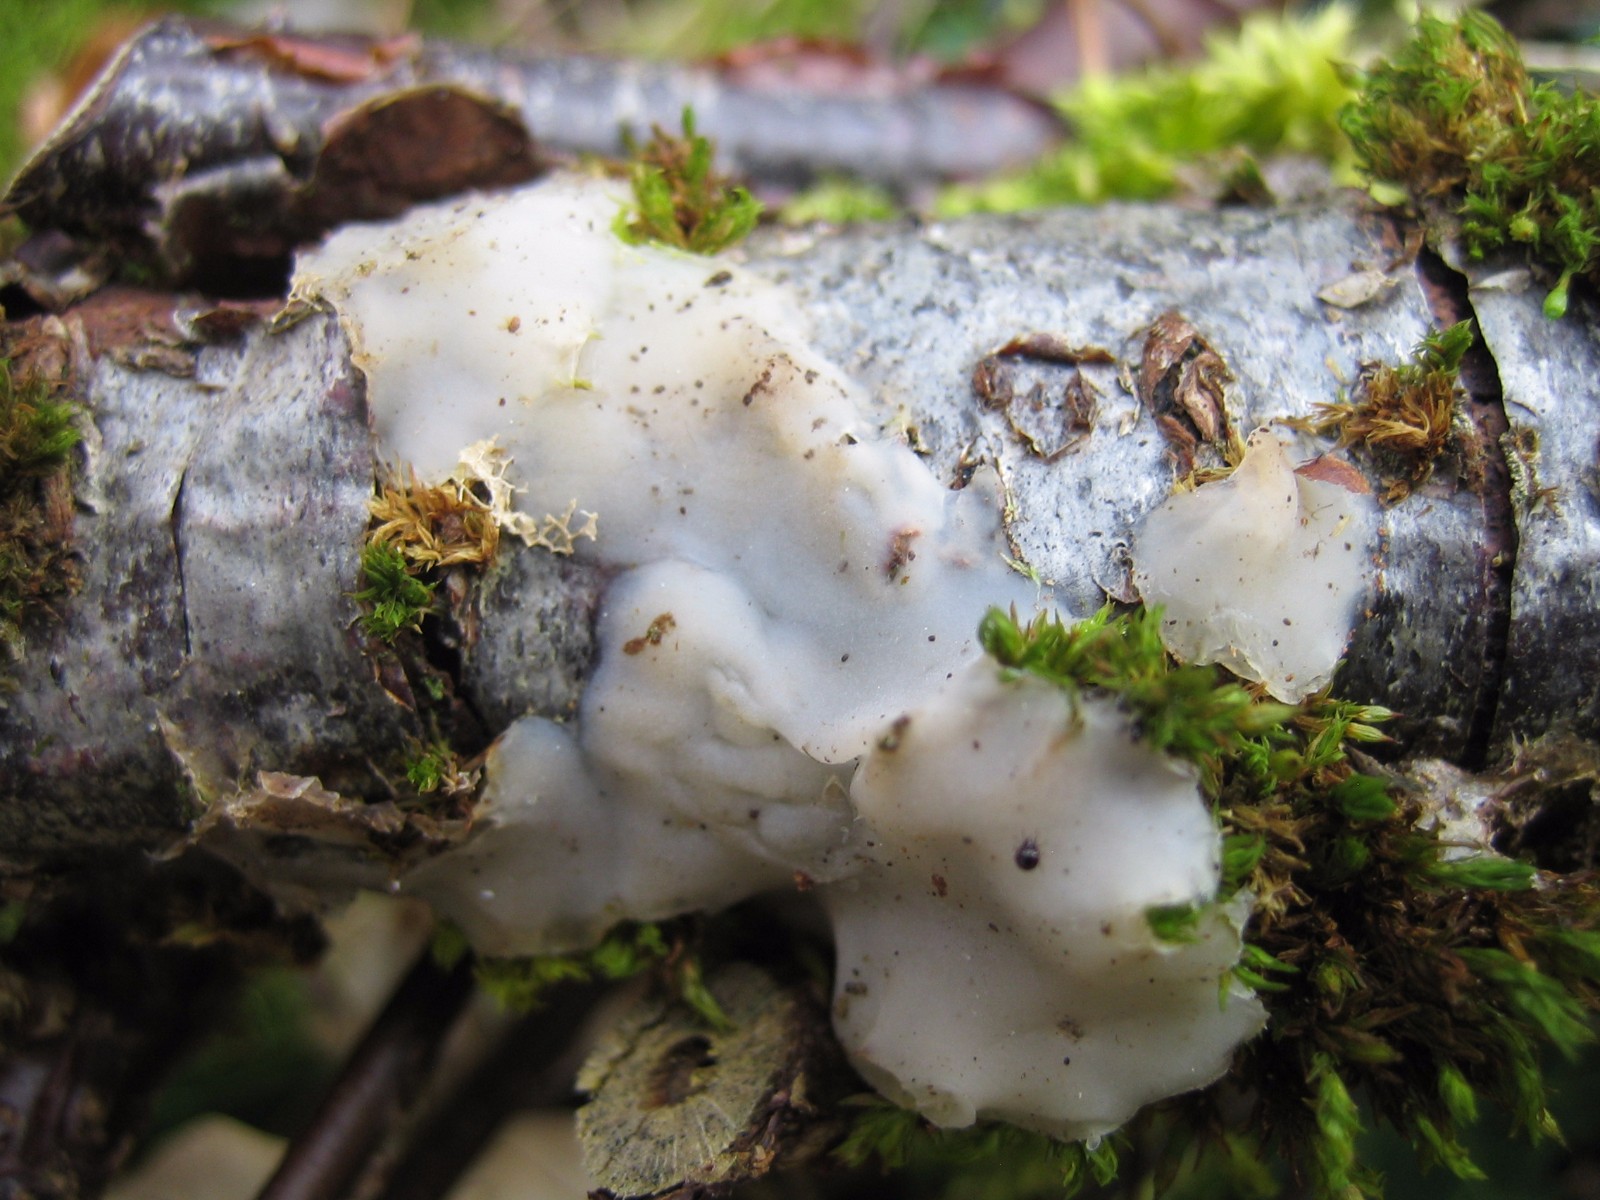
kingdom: Fungi
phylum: Basidiomycota
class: Agaricomycetes
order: Auriculariales
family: Auriculariaceae
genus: Exidia
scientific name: Exidia thuretiana
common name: hvidlig bævretop
